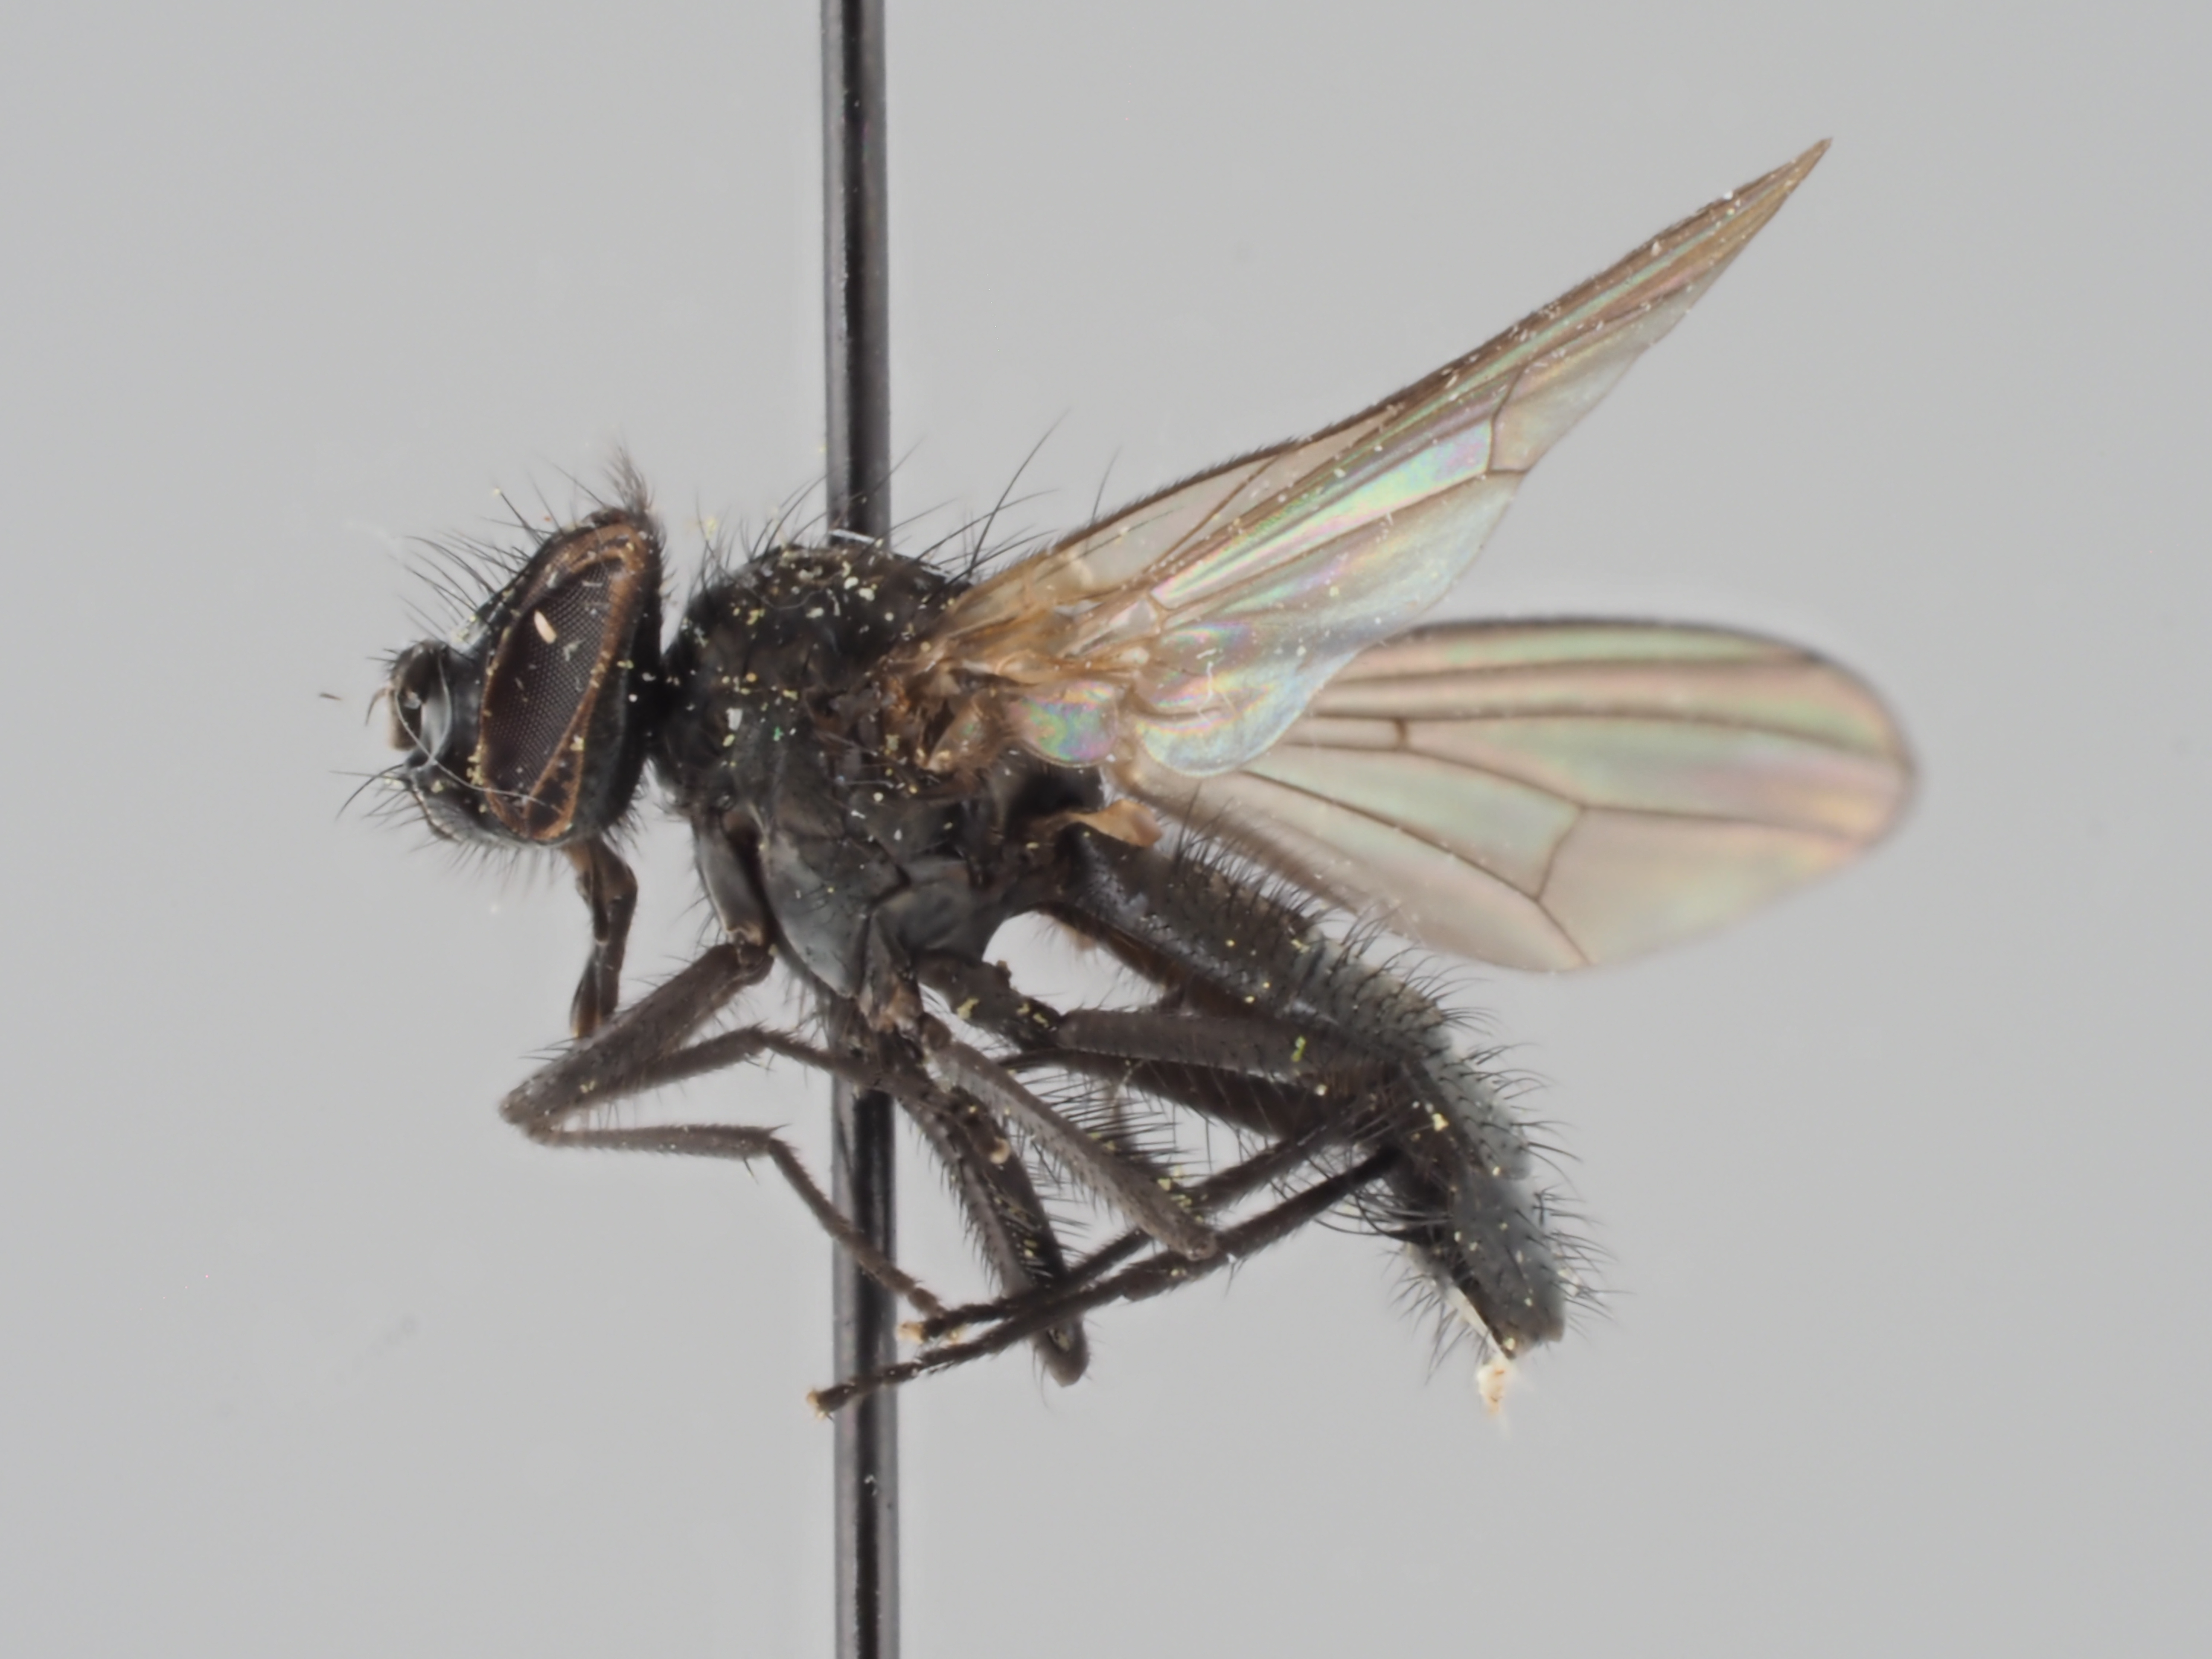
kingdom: Animalia
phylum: Arthropoda
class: Insecta
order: Diptera
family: Fanniidae
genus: Fannia
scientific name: Fannia mollissima
